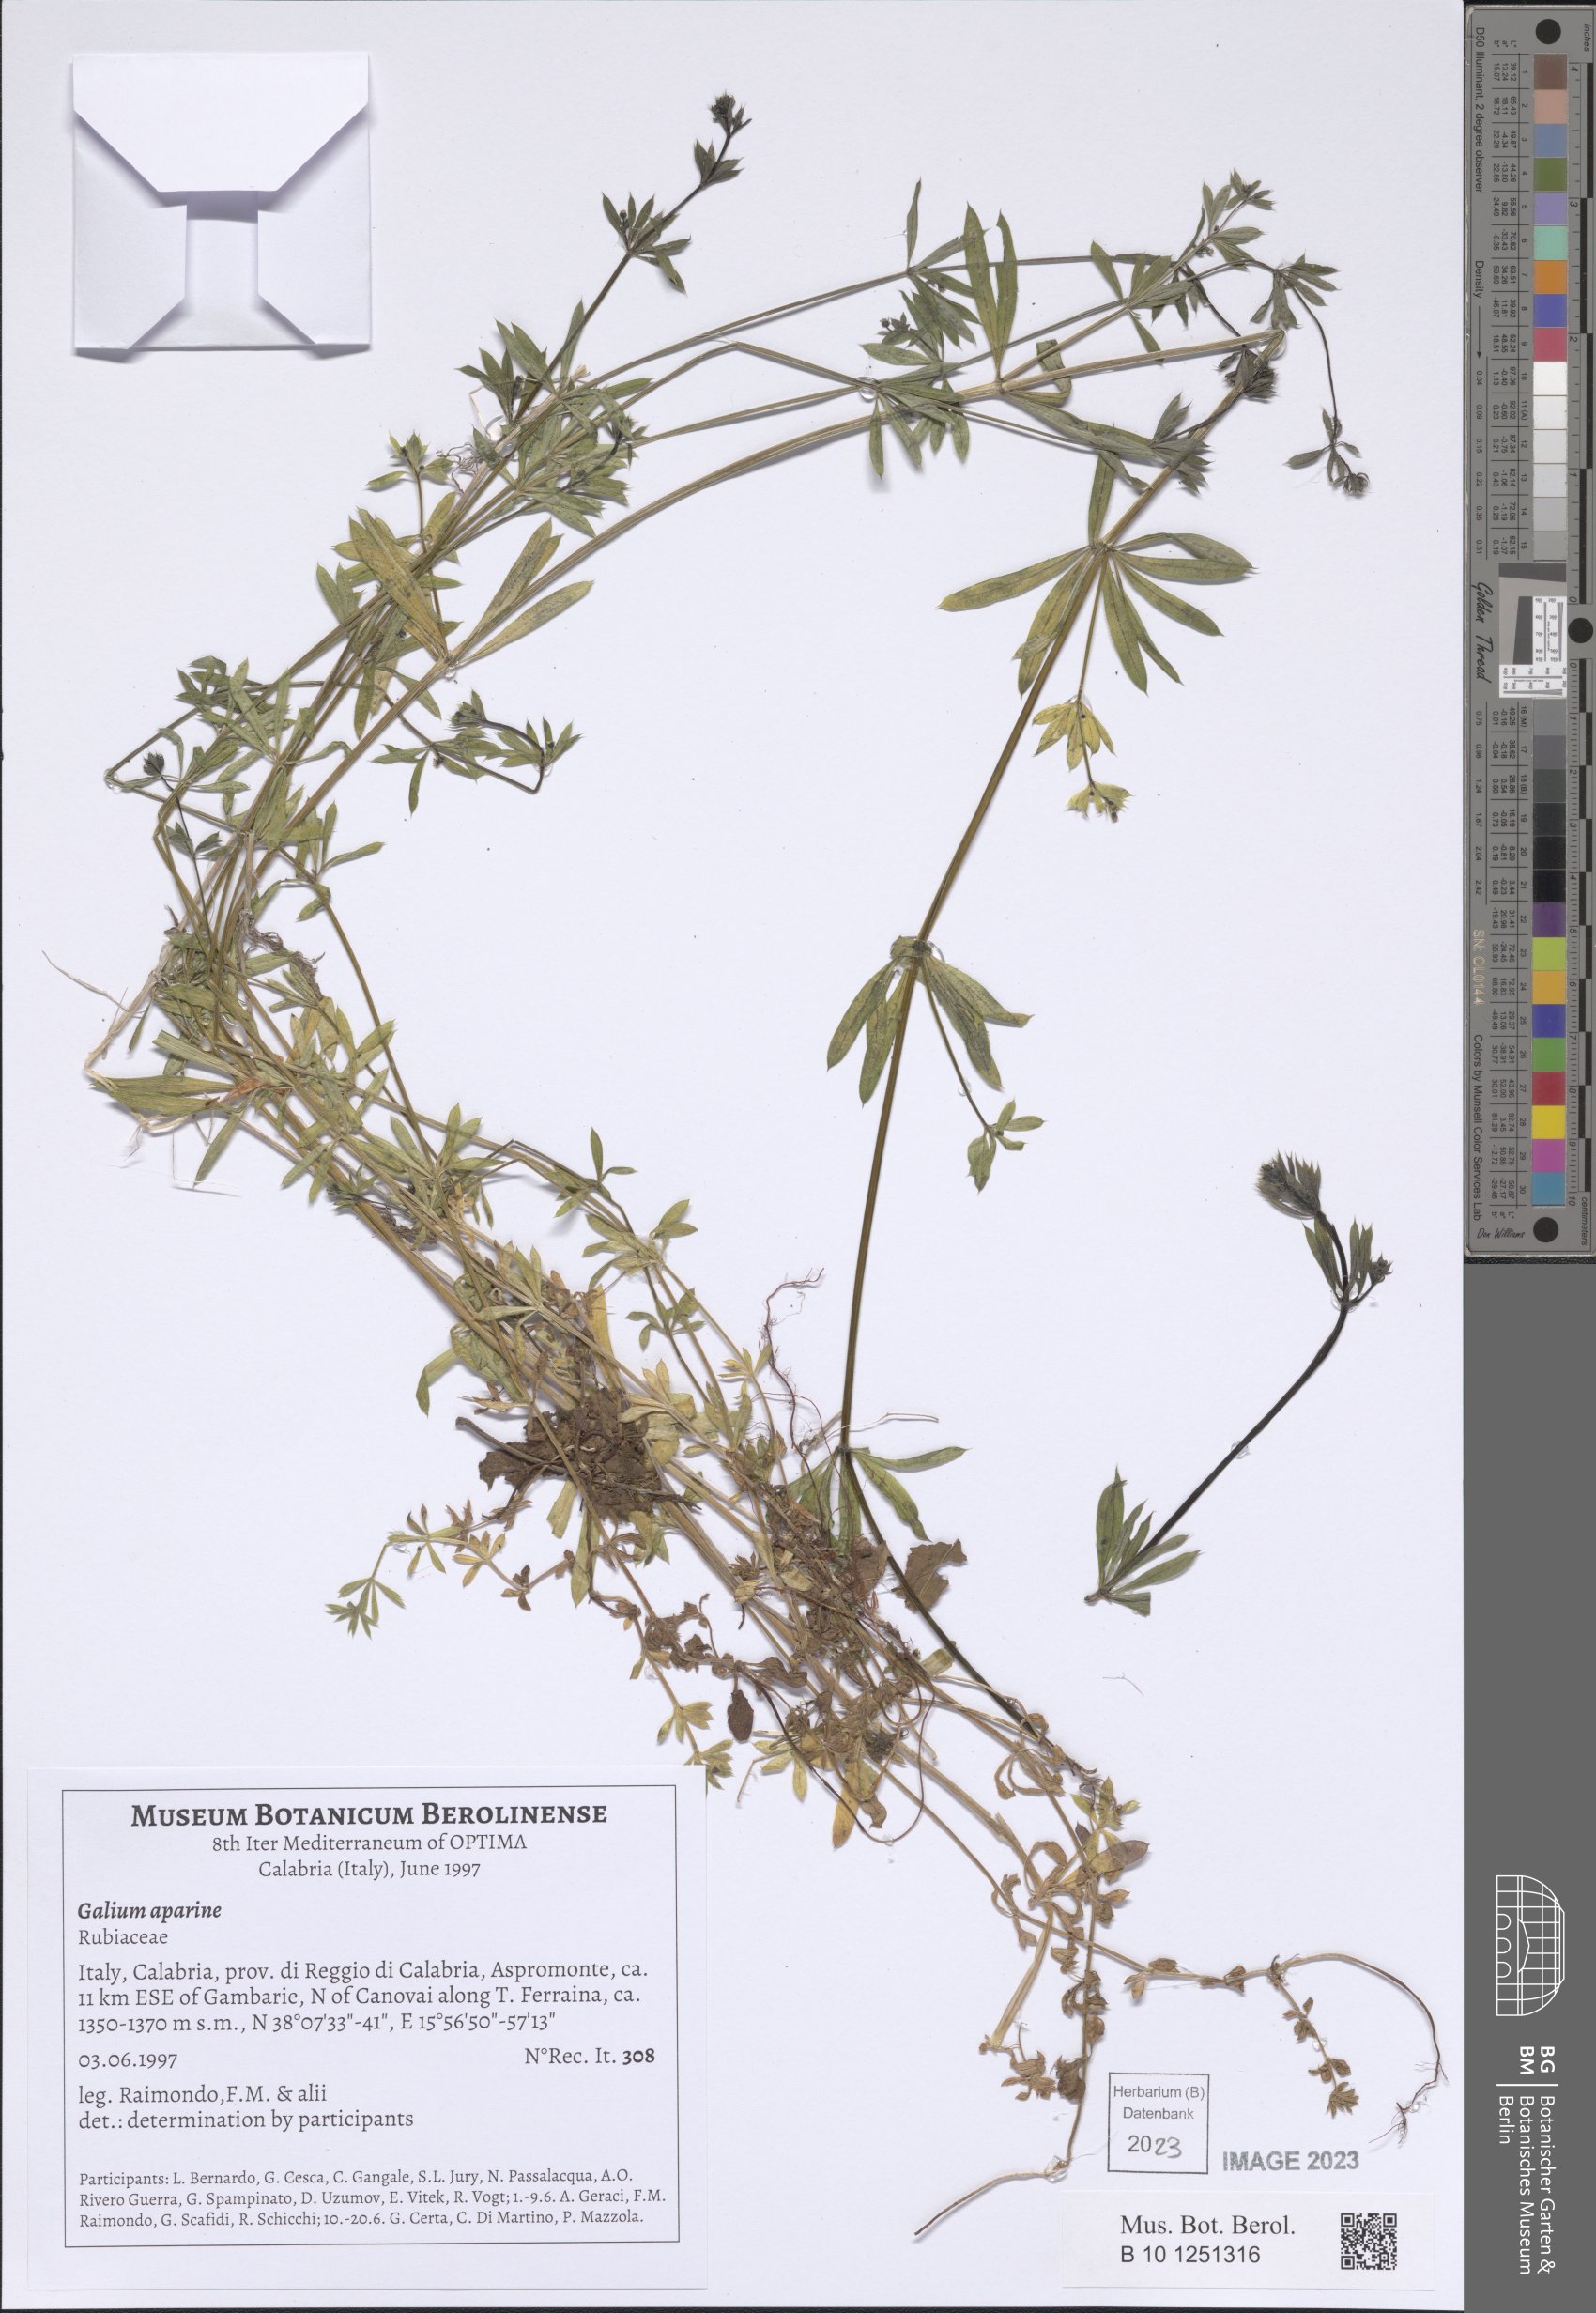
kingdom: Plantae
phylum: Tracheophyta
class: Magnoliopsida
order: Gentianales
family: Rubiaceae
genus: Galium
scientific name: Galium aparine
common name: Cleavers
